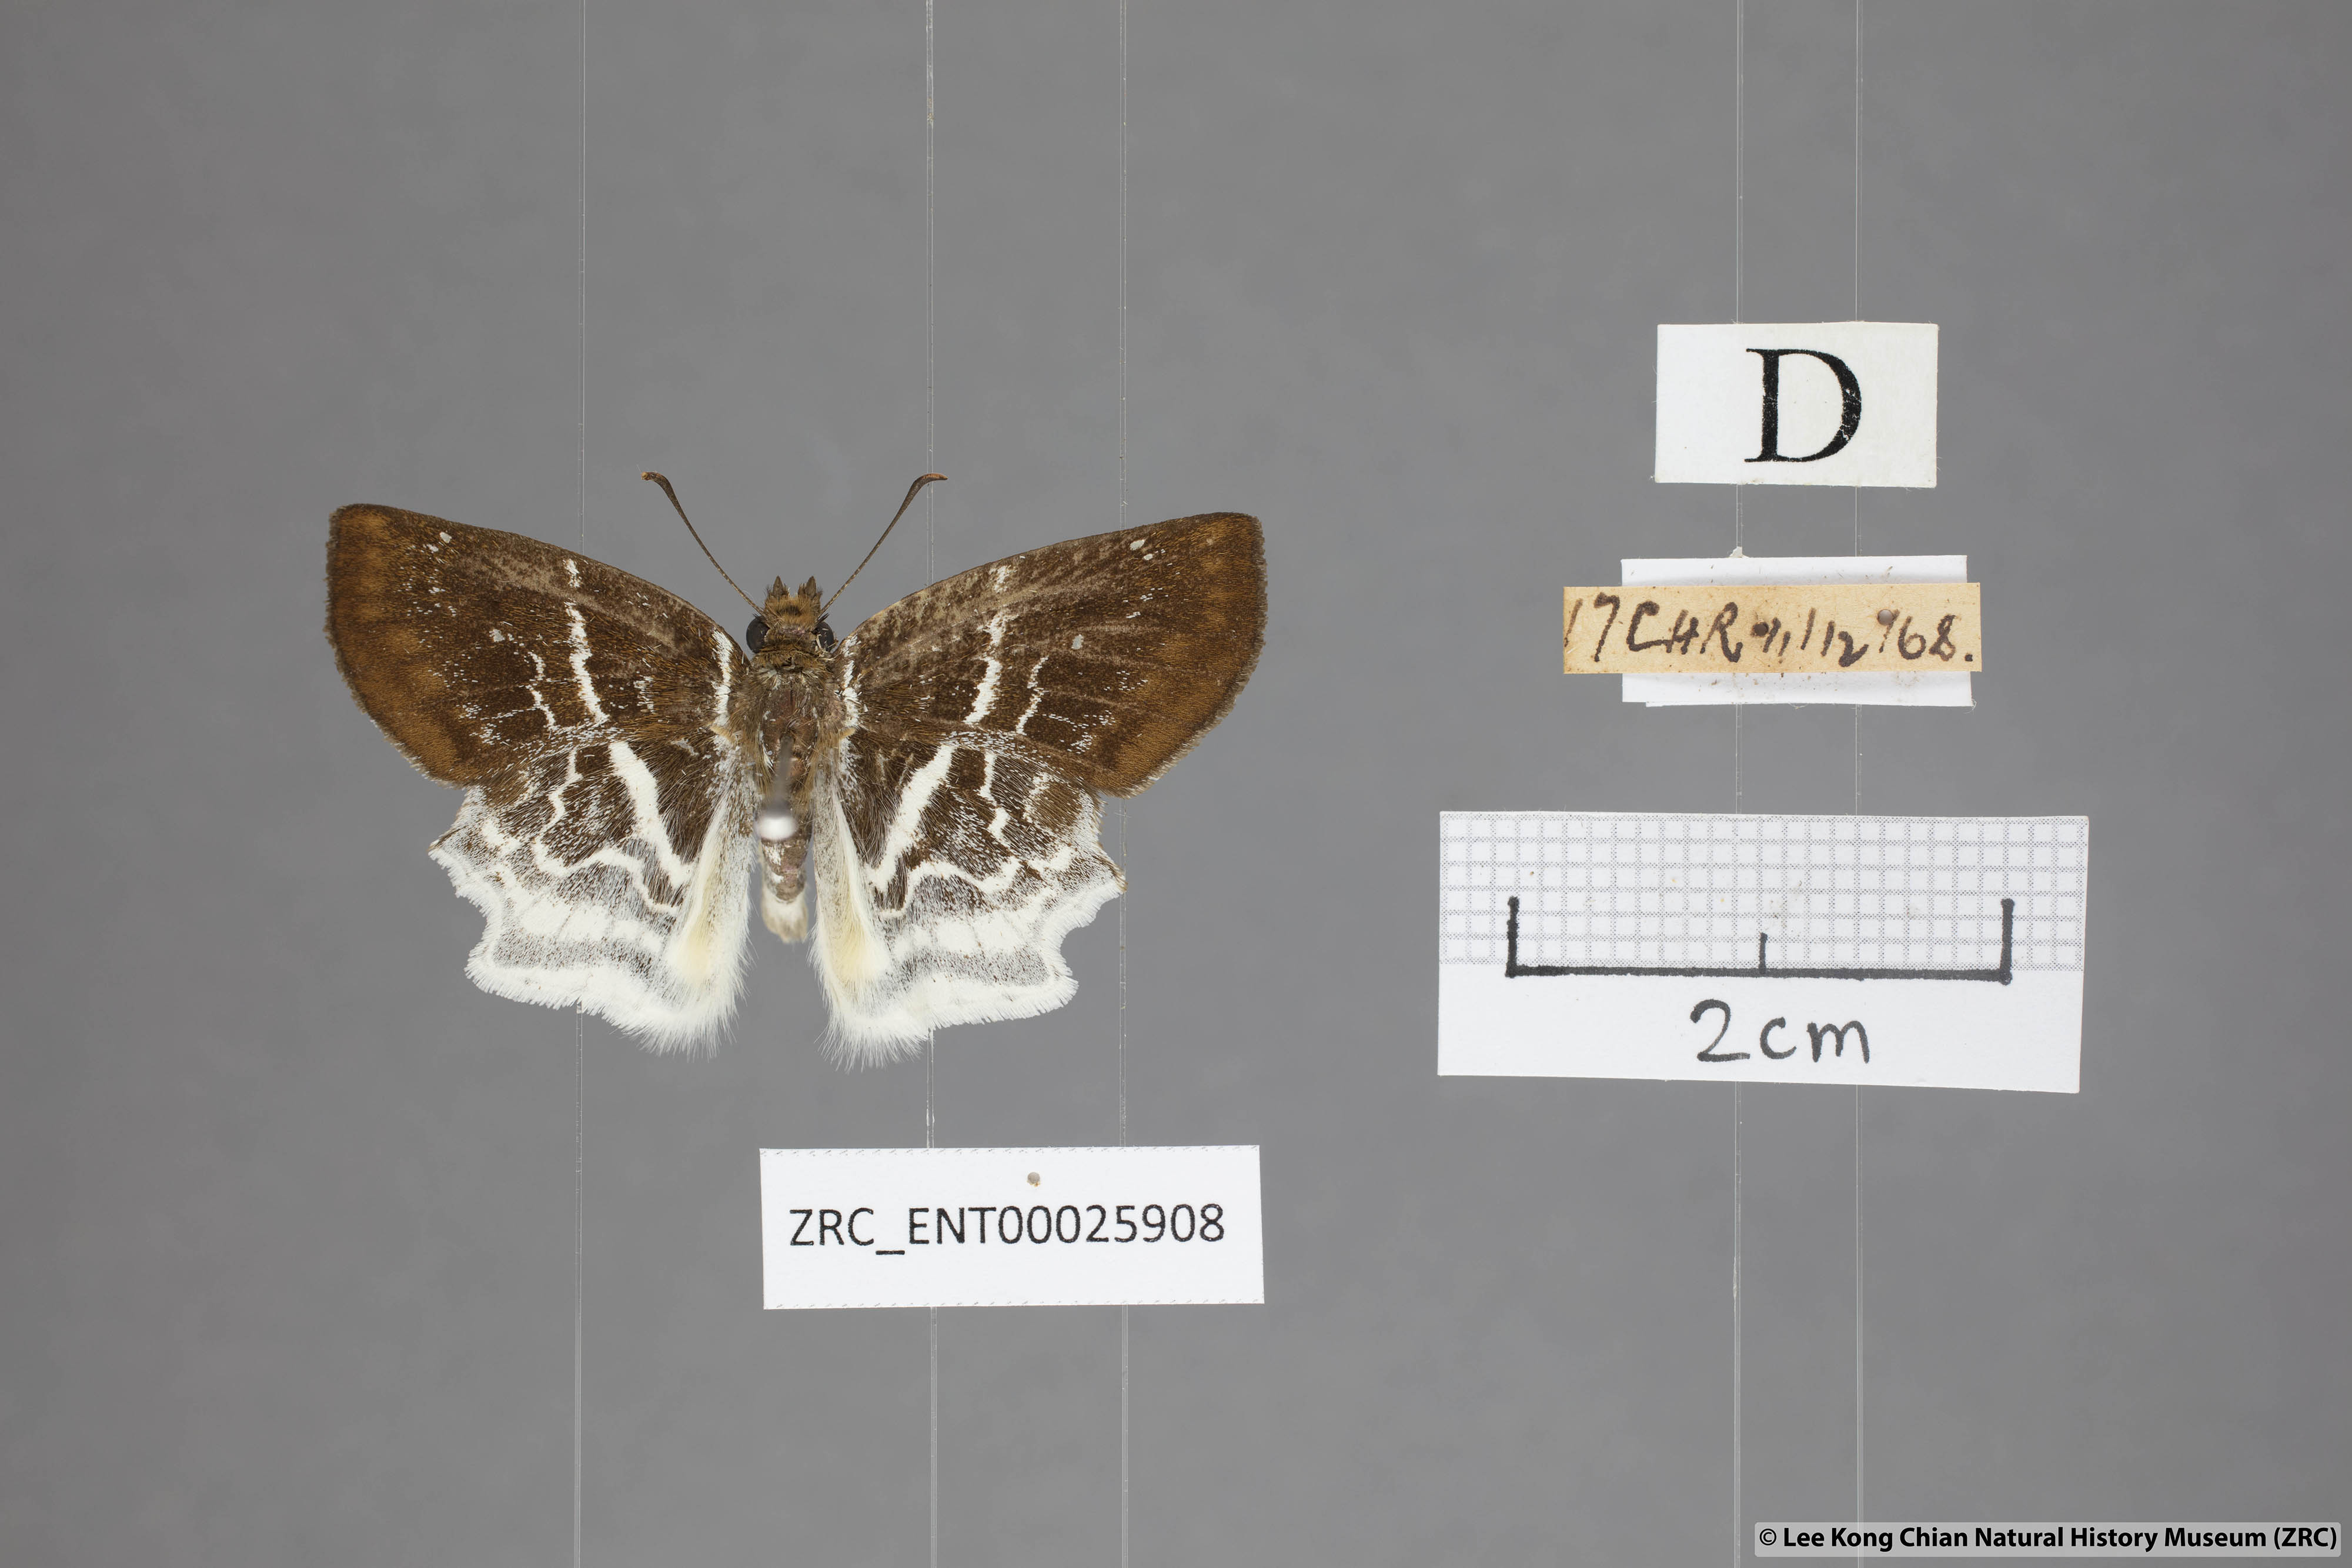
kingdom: Animalia
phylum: Arthropoda
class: Insecta
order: Lepidoptera
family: Hesperiidae
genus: Odontoptilum
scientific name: Odontoptilum pygela
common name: Banded angle
